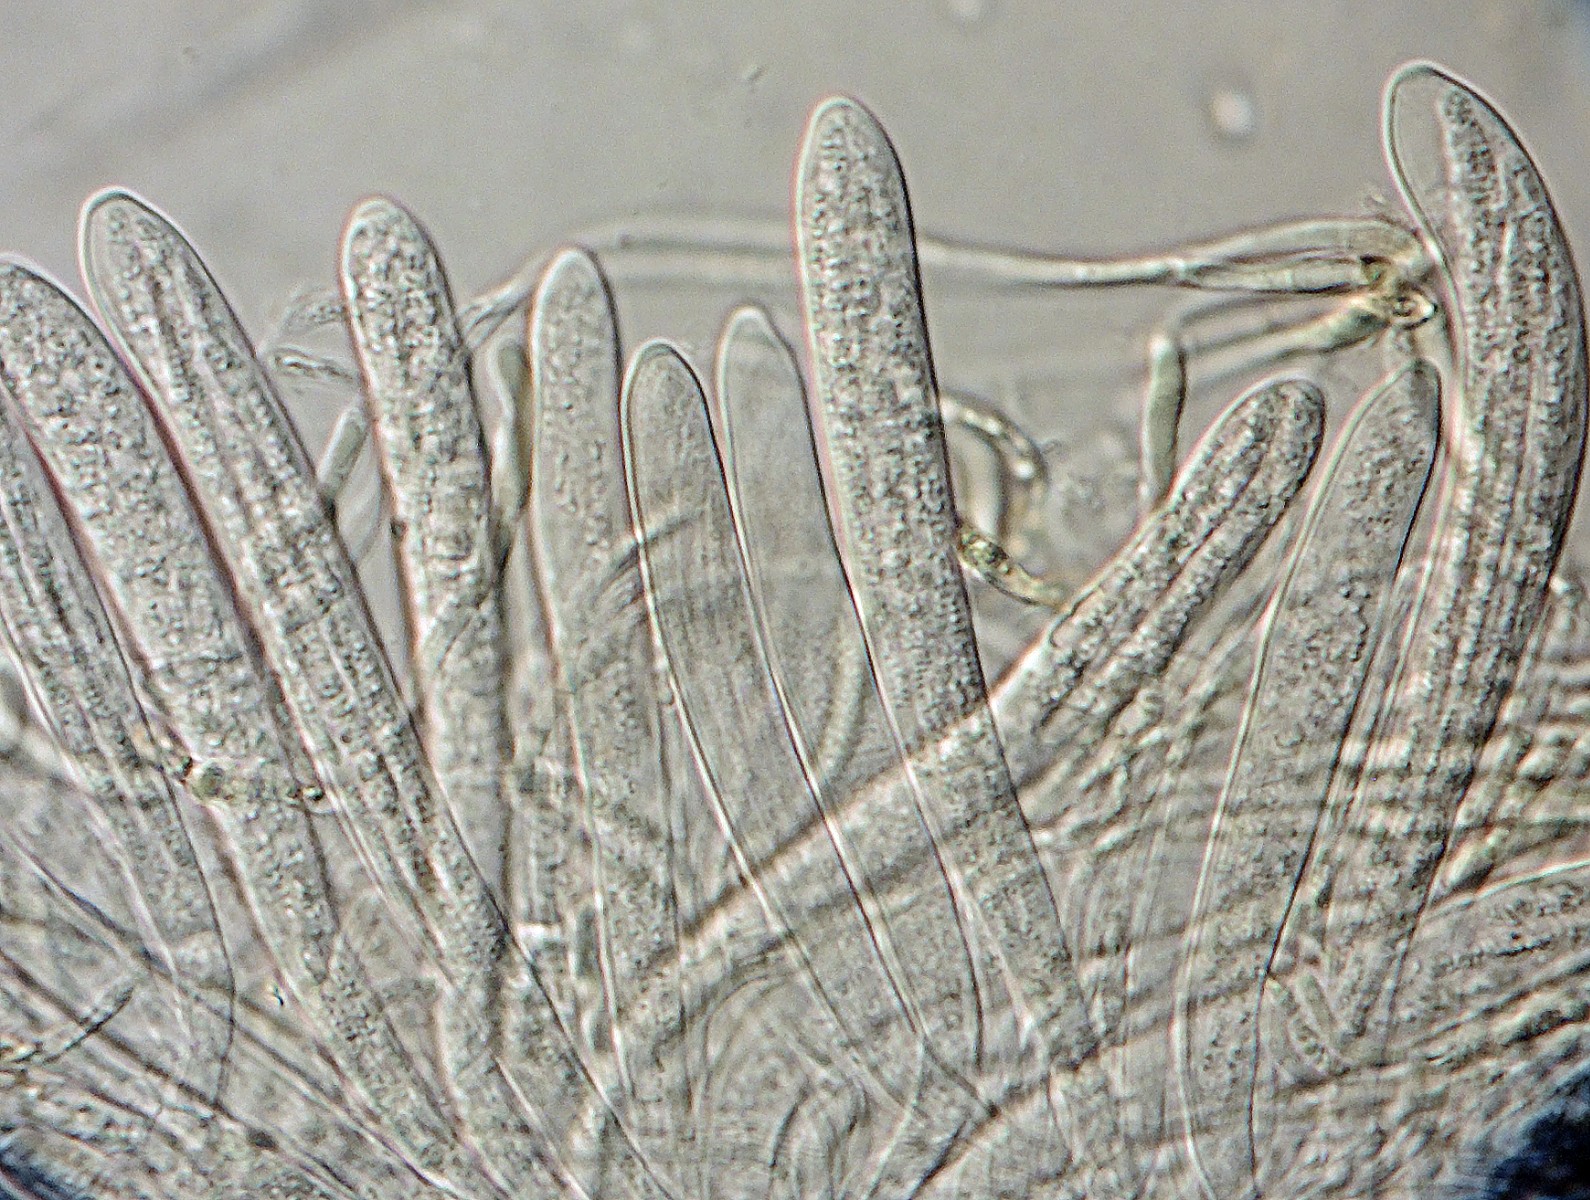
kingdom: Fungi
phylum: Ascomycota
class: Leotiomycetes
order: Helotiales
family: Helotiaceae
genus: Gorgoniceps
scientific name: Gorgoniceps
